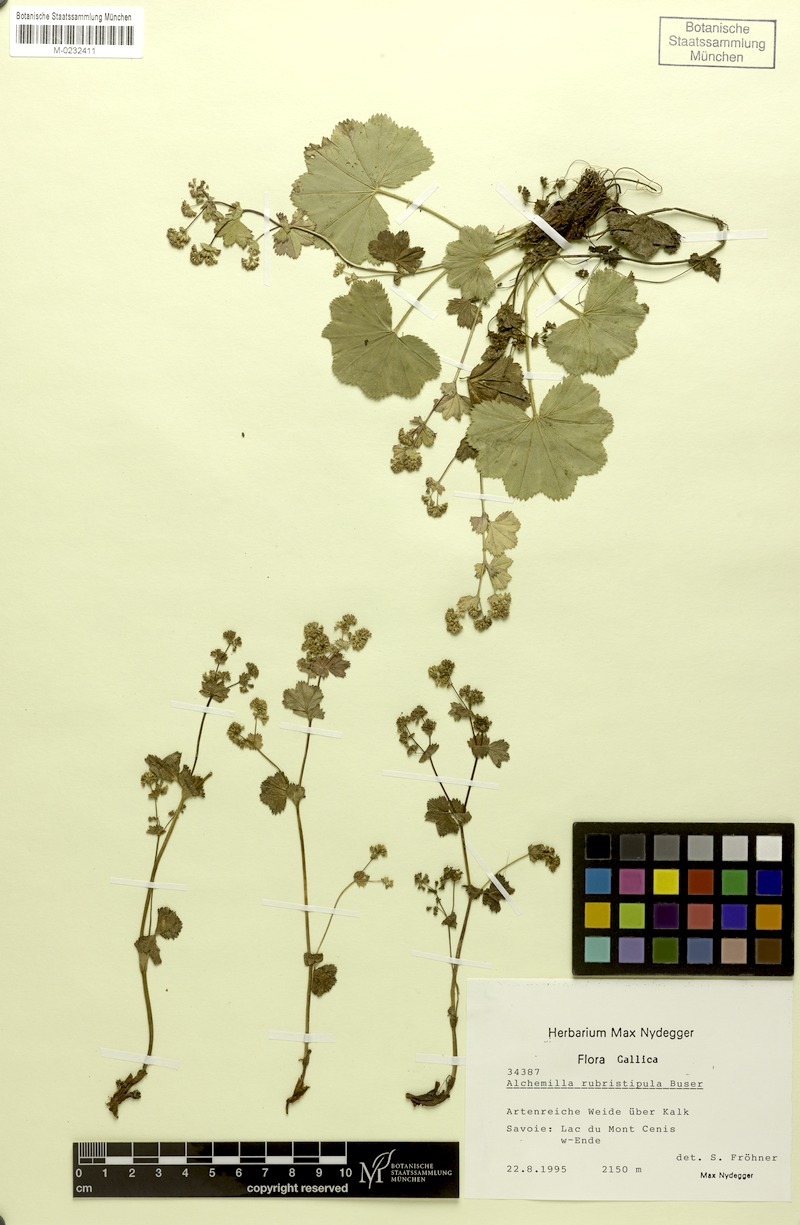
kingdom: Plantae
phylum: Tracheophyta
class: Magnoliopsida
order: Rosales
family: Rosaceae
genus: Alchemilla
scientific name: Alchemilla rubristipula
